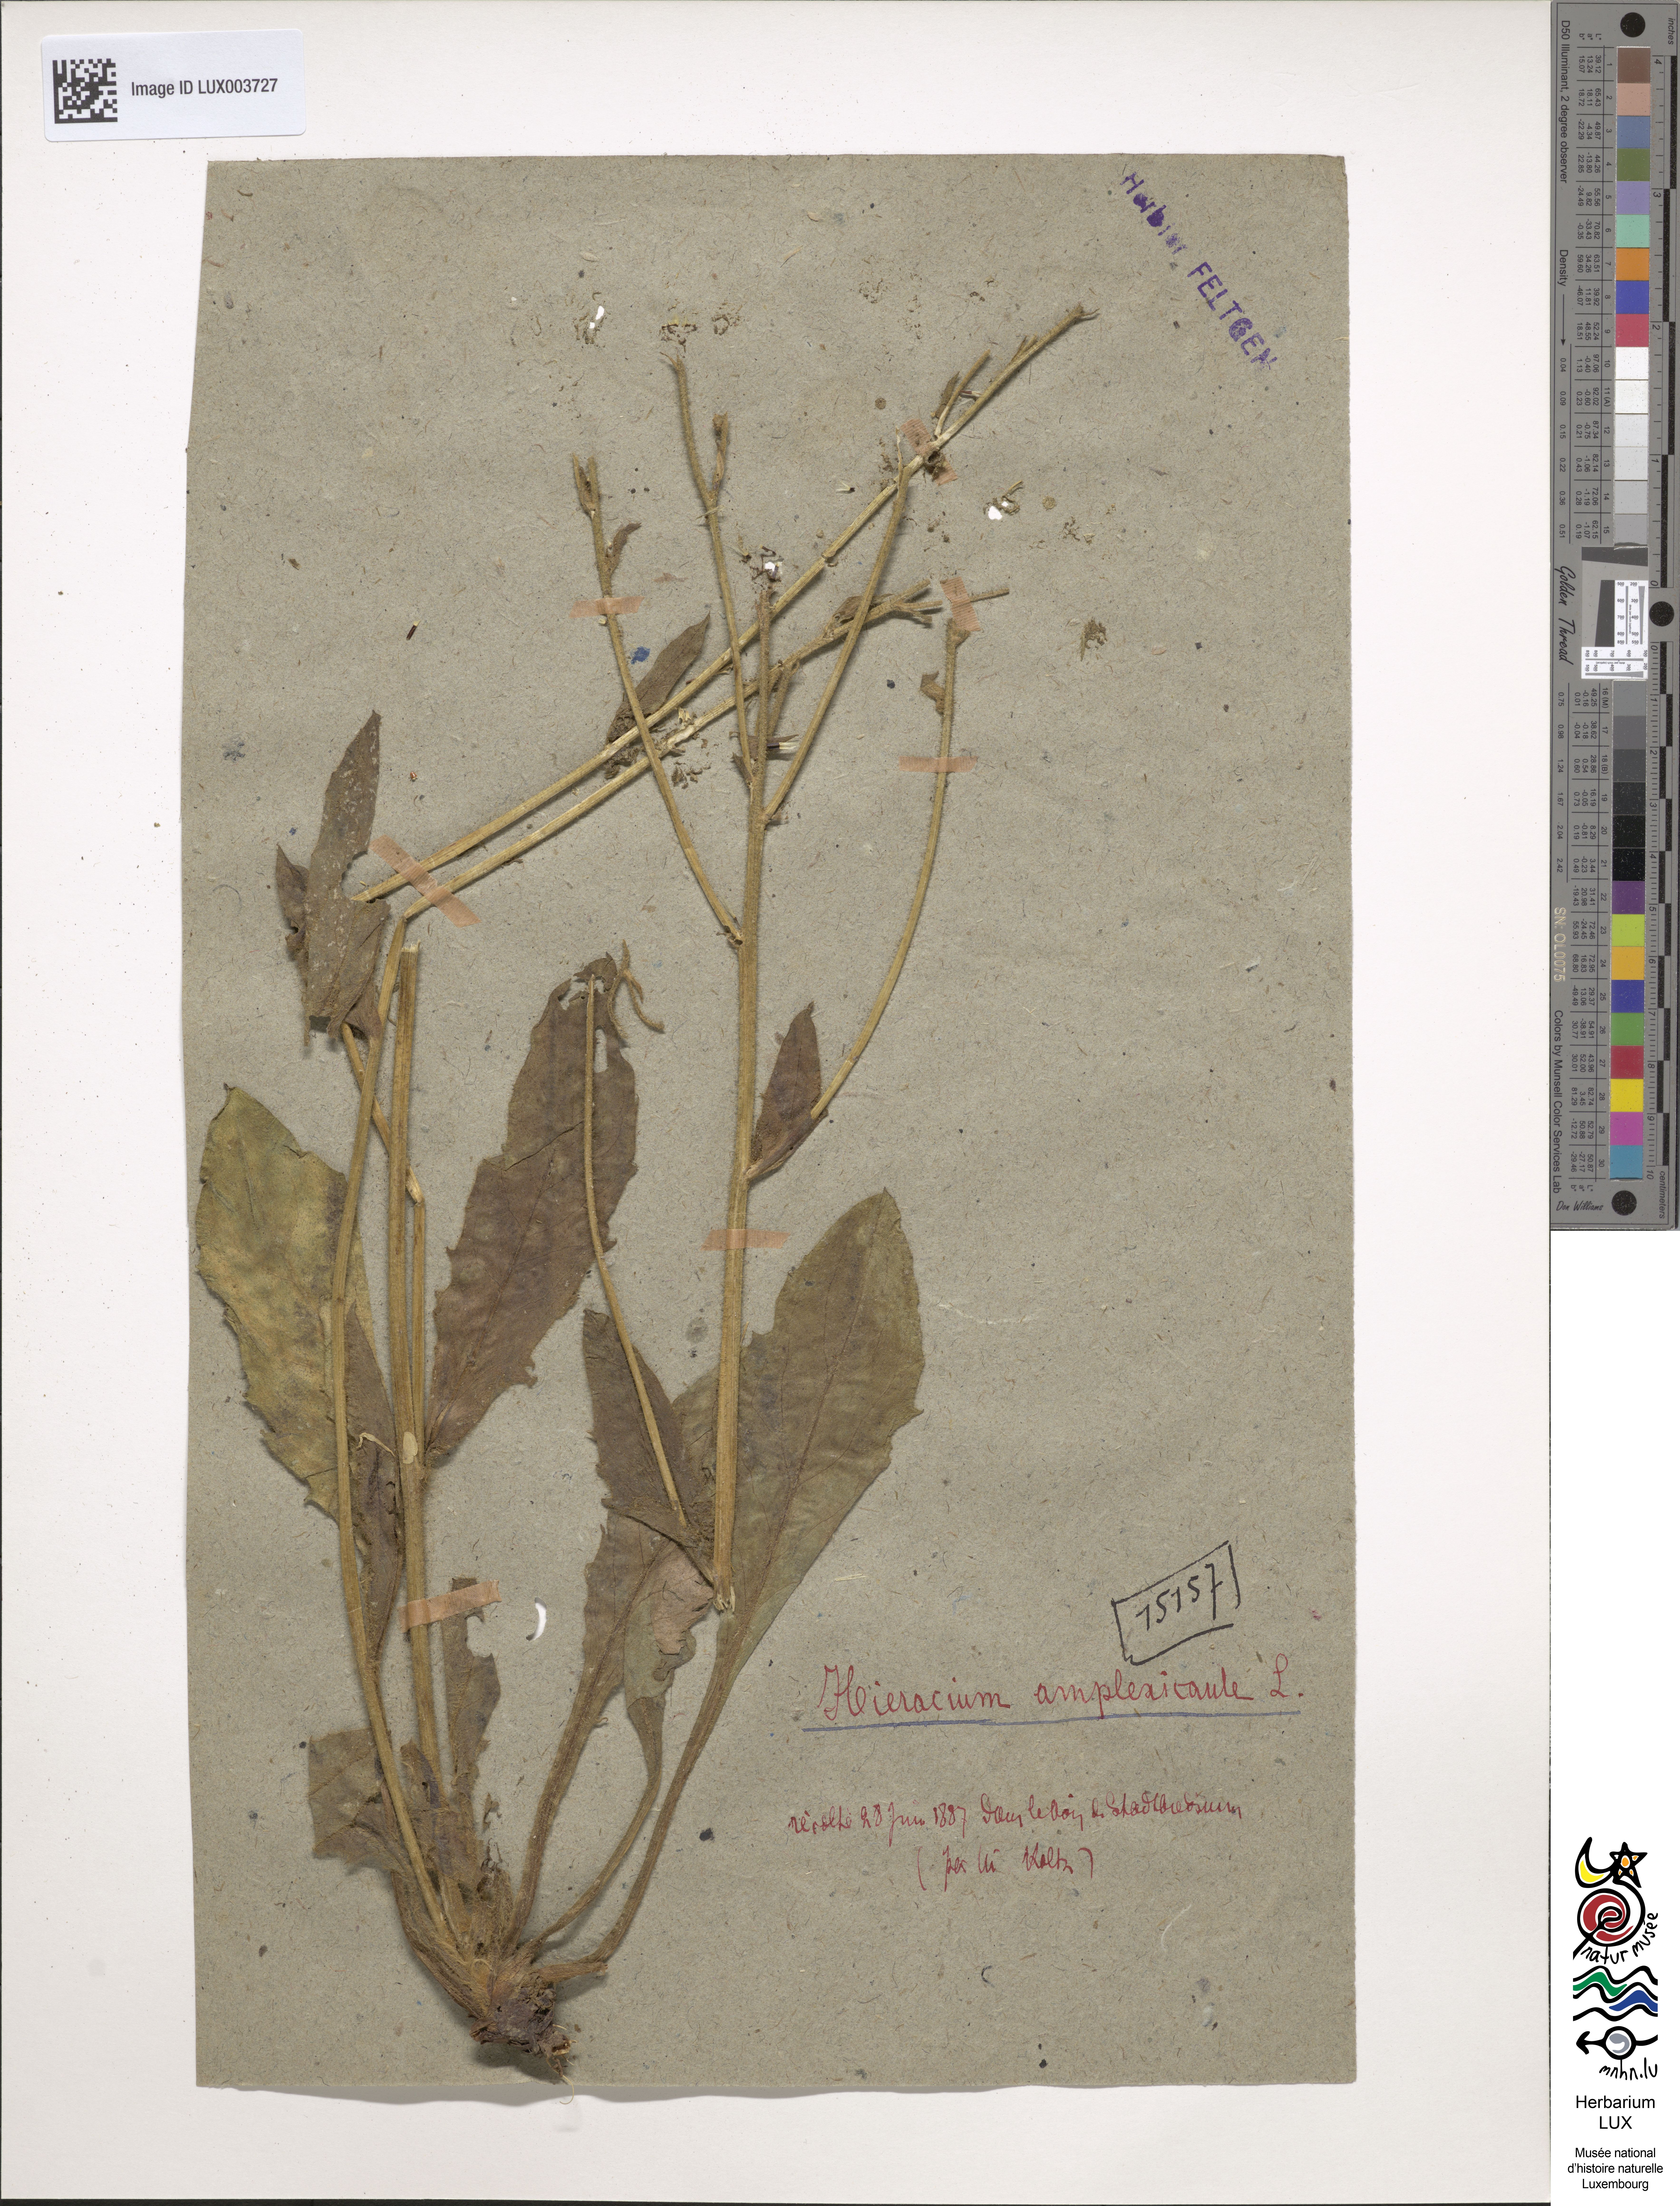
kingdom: Plantae
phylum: Tracheophyta
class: Magnoliopsida
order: Asterales
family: Asteraceae
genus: Hieracium
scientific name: Hieracium amplexicaule
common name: Sticky hawkweed
